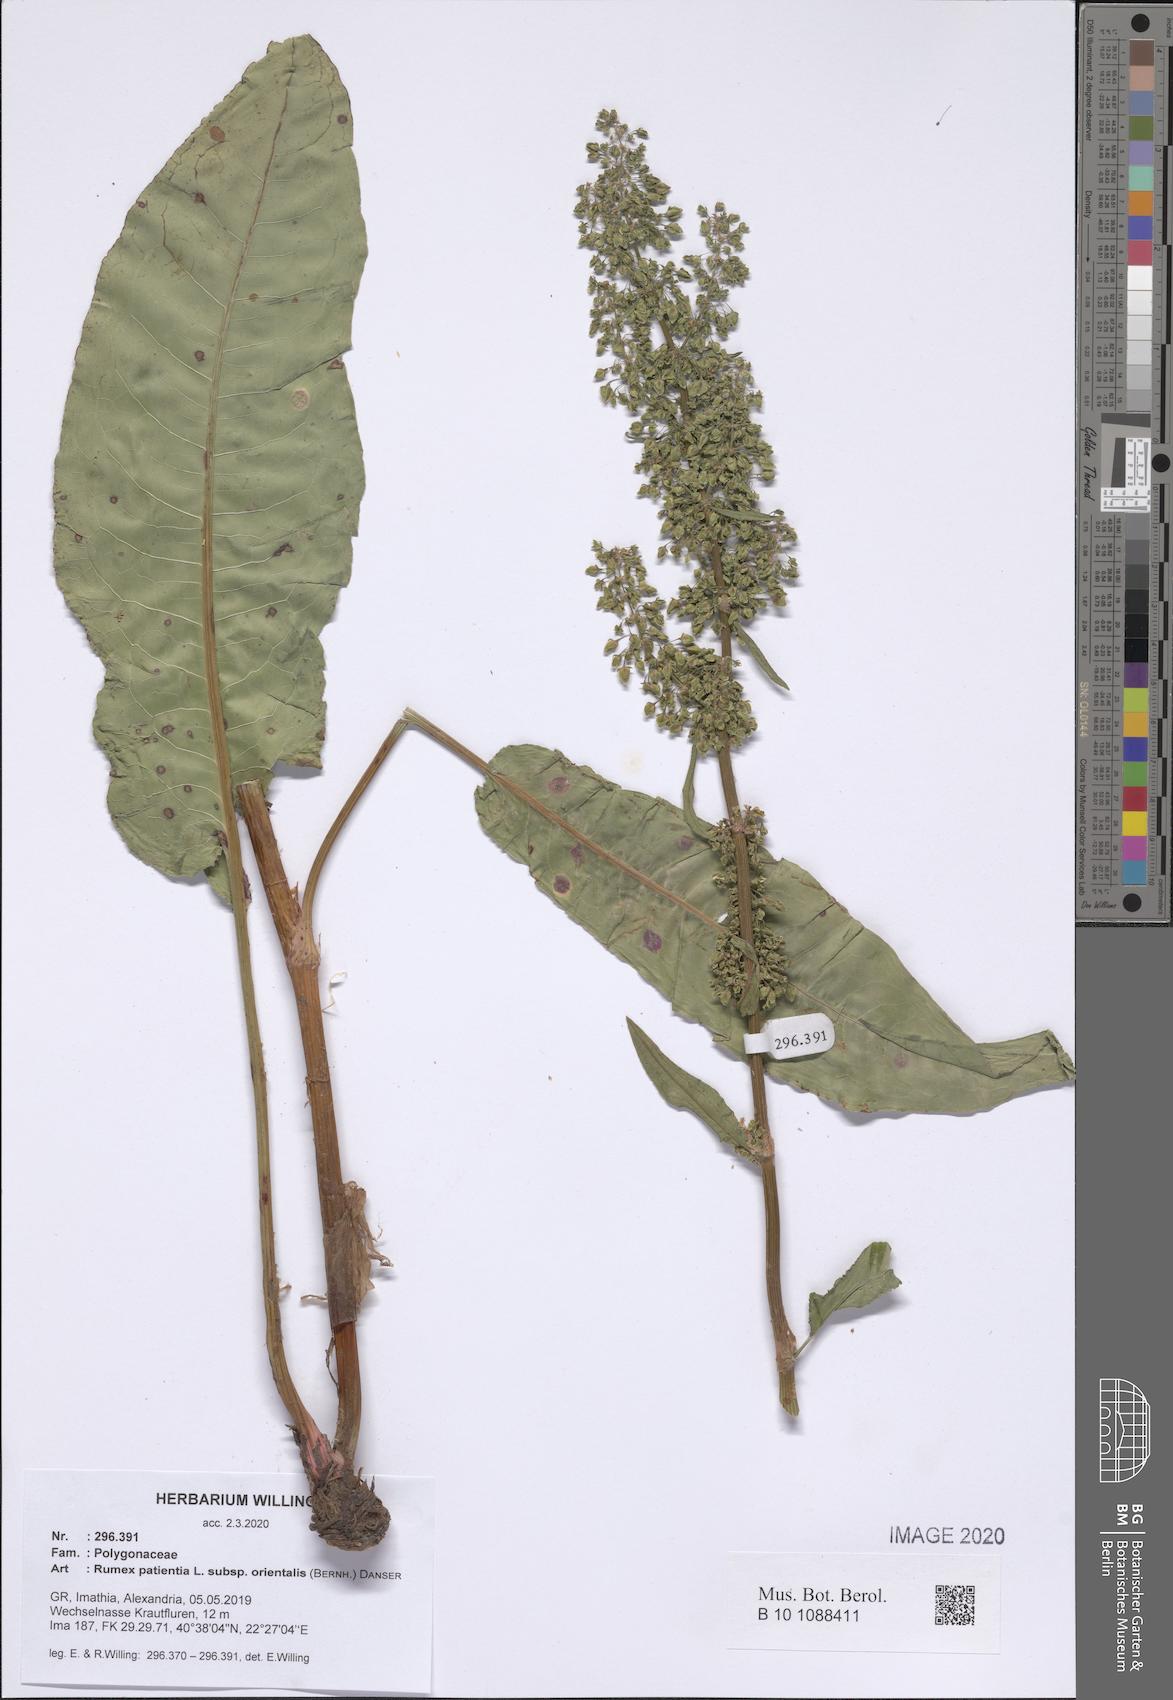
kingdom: Plantae
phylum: Tracheophyta
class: Magnoliopsida
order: Caryophyllales
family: Polygonaceae
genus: Rumex
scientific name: Rumex patientia
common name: Patience dock
